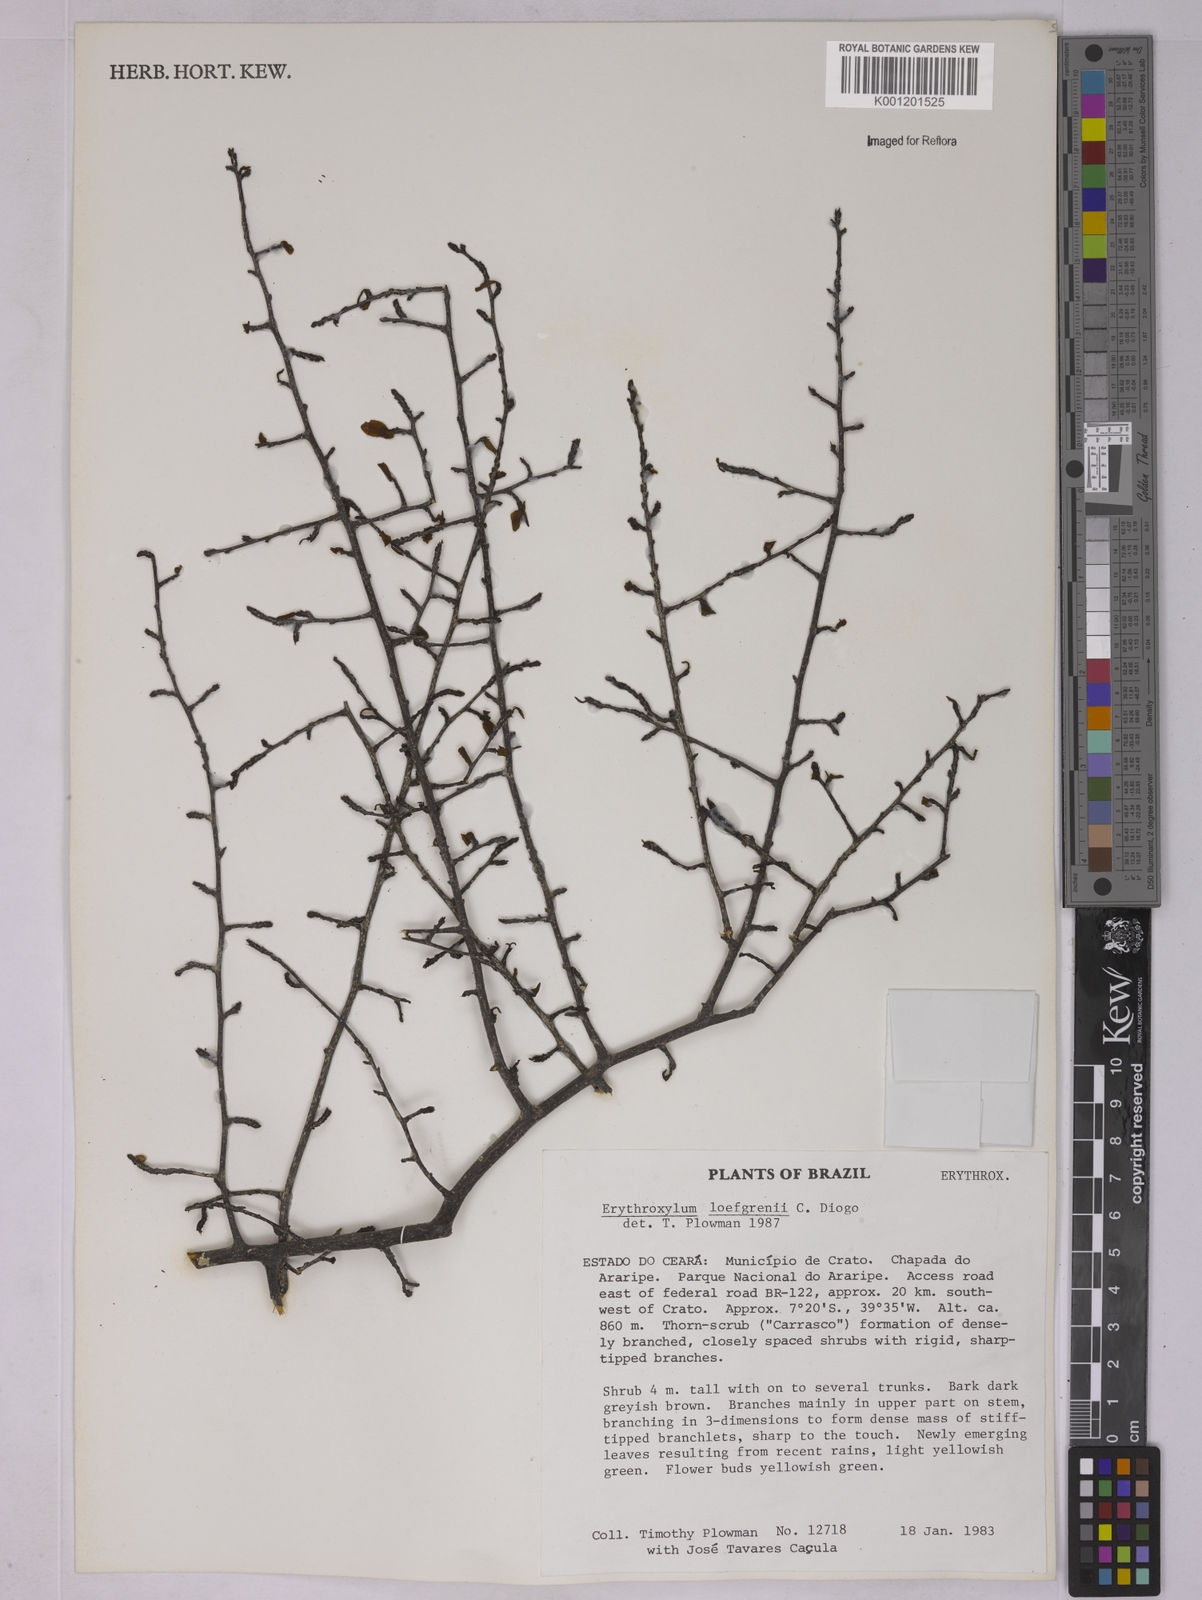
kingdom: Plantae
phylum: Tracheophyta
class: Magnoliopsida
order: Malpighiales
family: Erythroxylaceae
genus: Erythroxylum
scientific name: Erythroxylum loefgrenii
